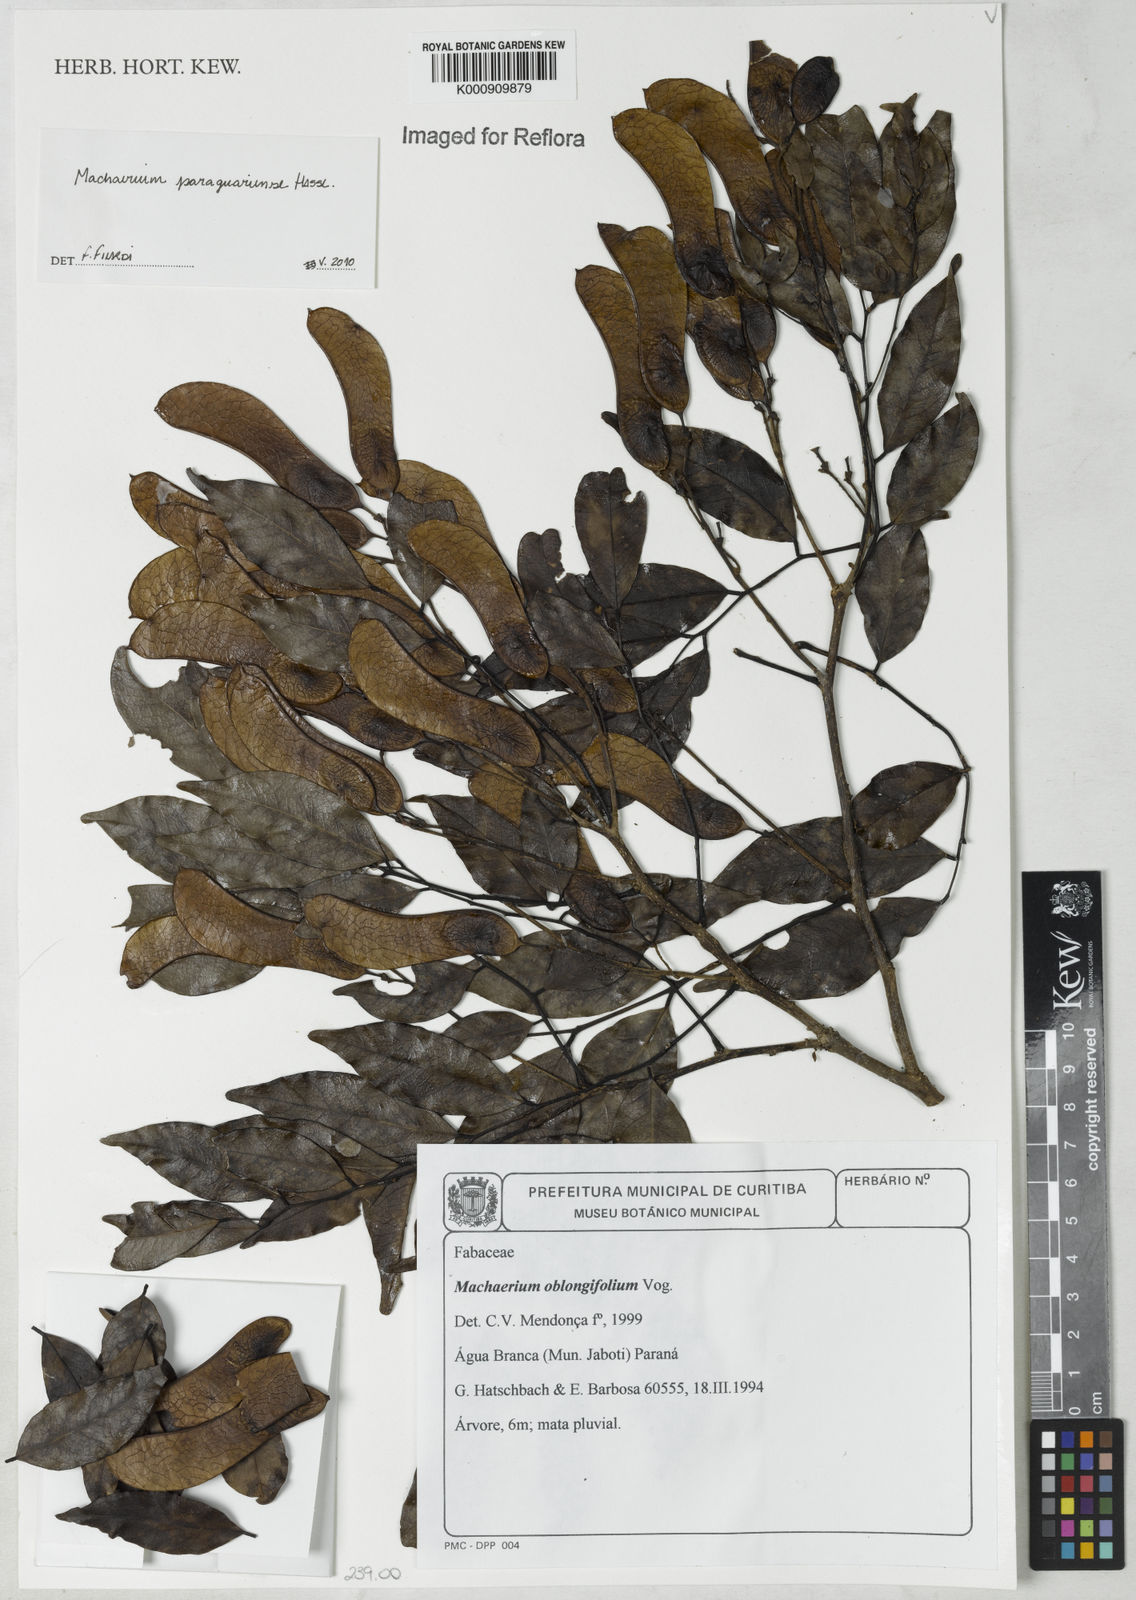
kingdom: Plantae
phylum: Tracheophyta
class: Magnoliopsida
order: Fabales
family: Fabaceae
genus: Machaerium
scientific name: Machaerium oblongifolium
